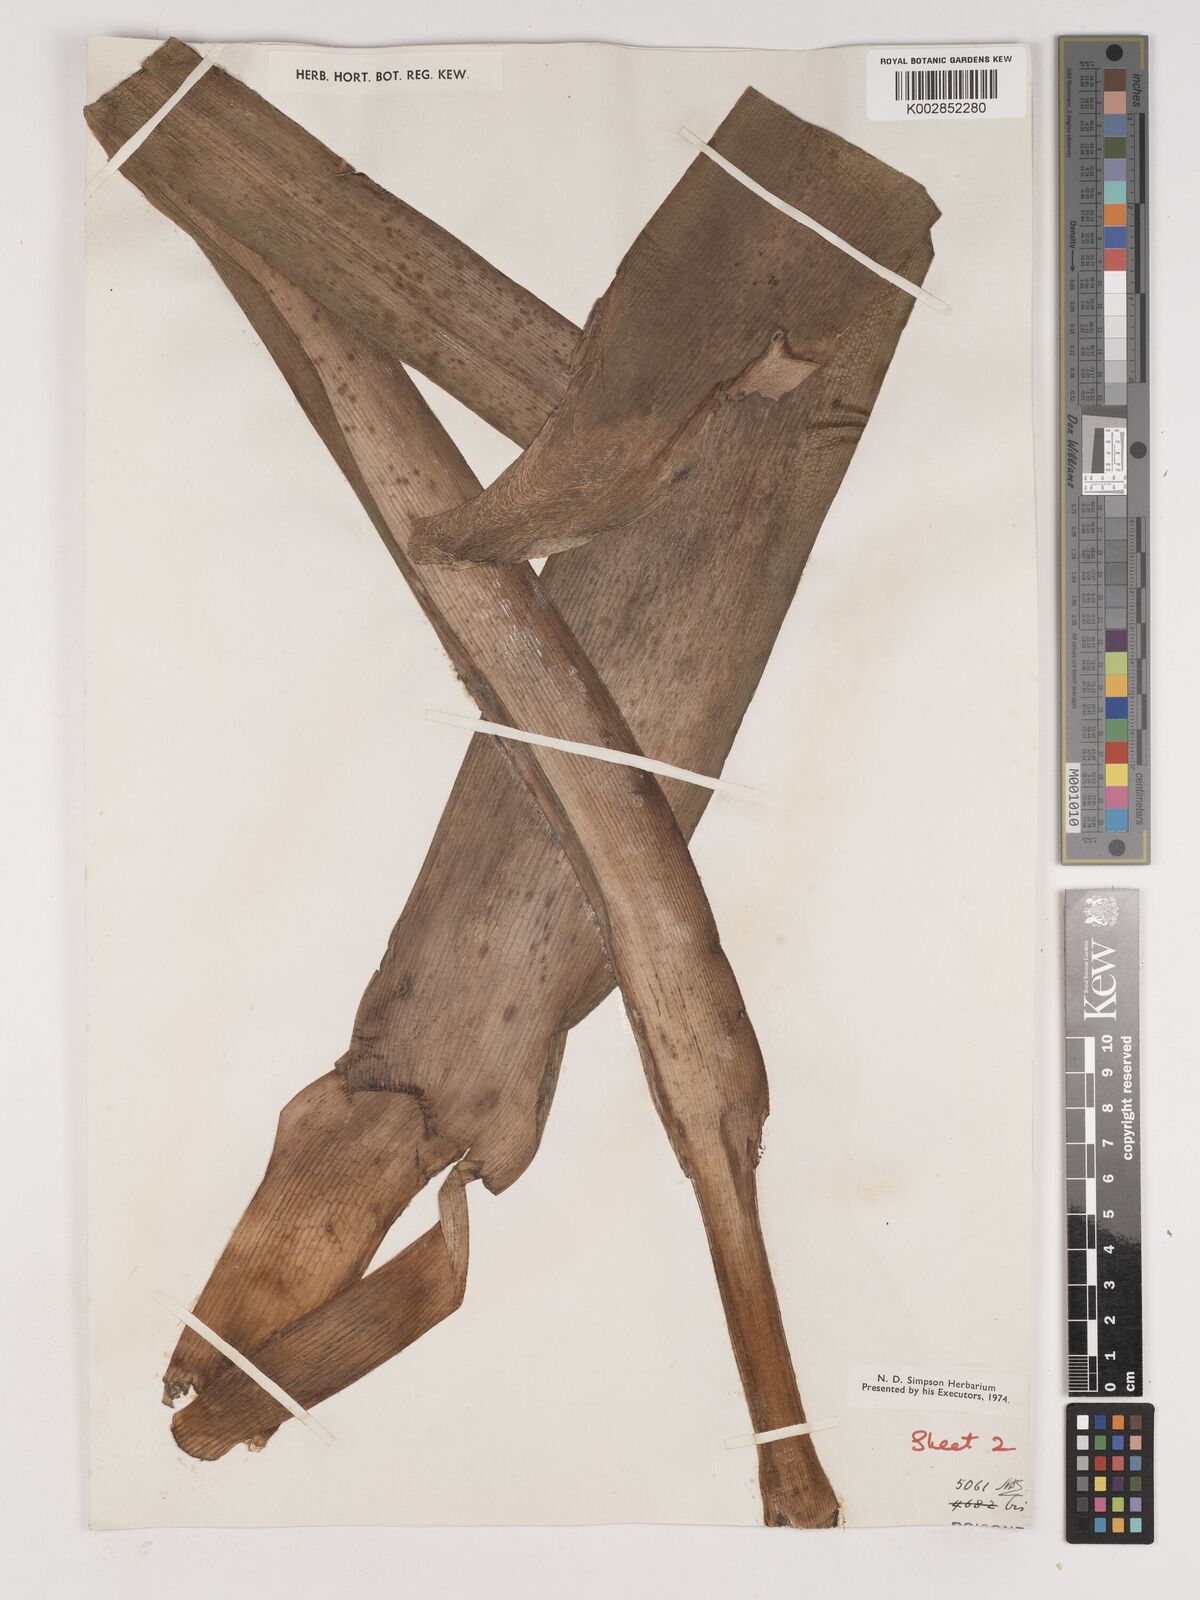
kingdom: Plantae
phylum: Tracheophyta
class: Liliopsida
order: Asparagales
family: Amaryllidaceae
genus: Crinum
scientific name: Crinum
